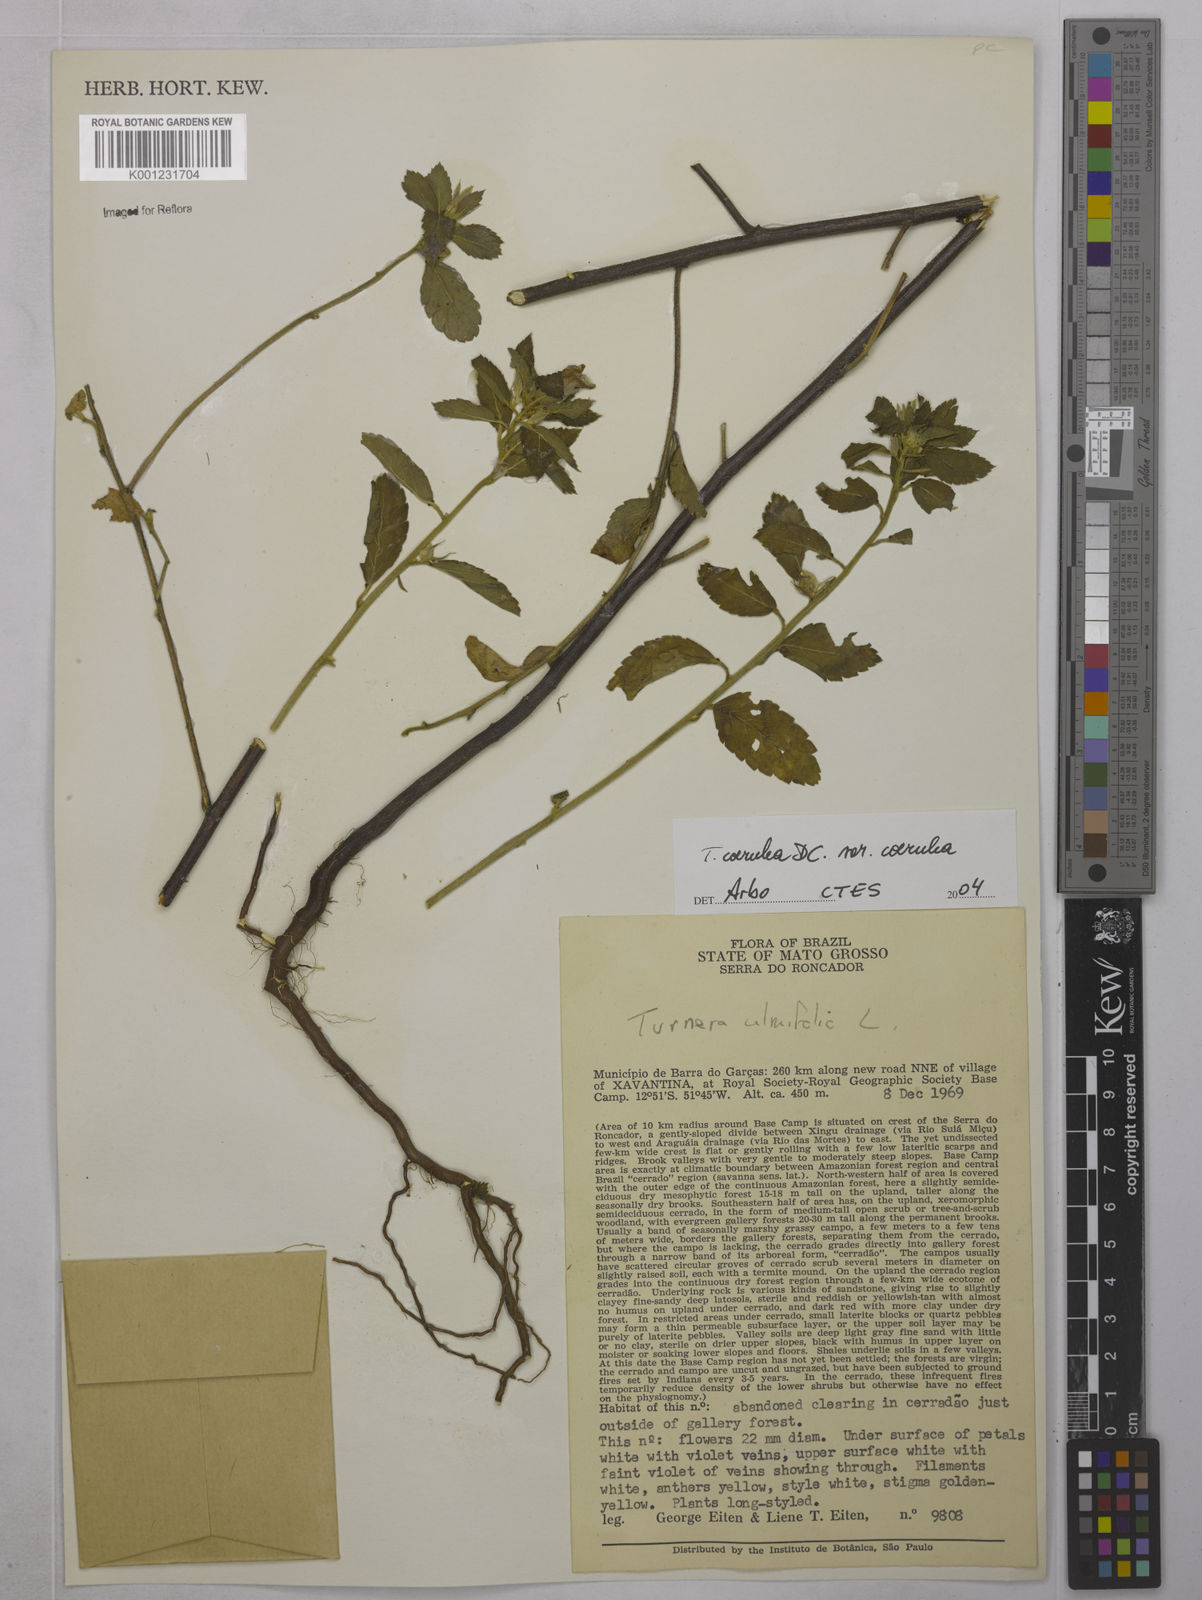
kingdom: Plantae
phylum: Tracheophyta
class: Magnoliopsida
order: Malpighiales
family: Turneraceae
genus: Turnera
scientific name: Turnera
